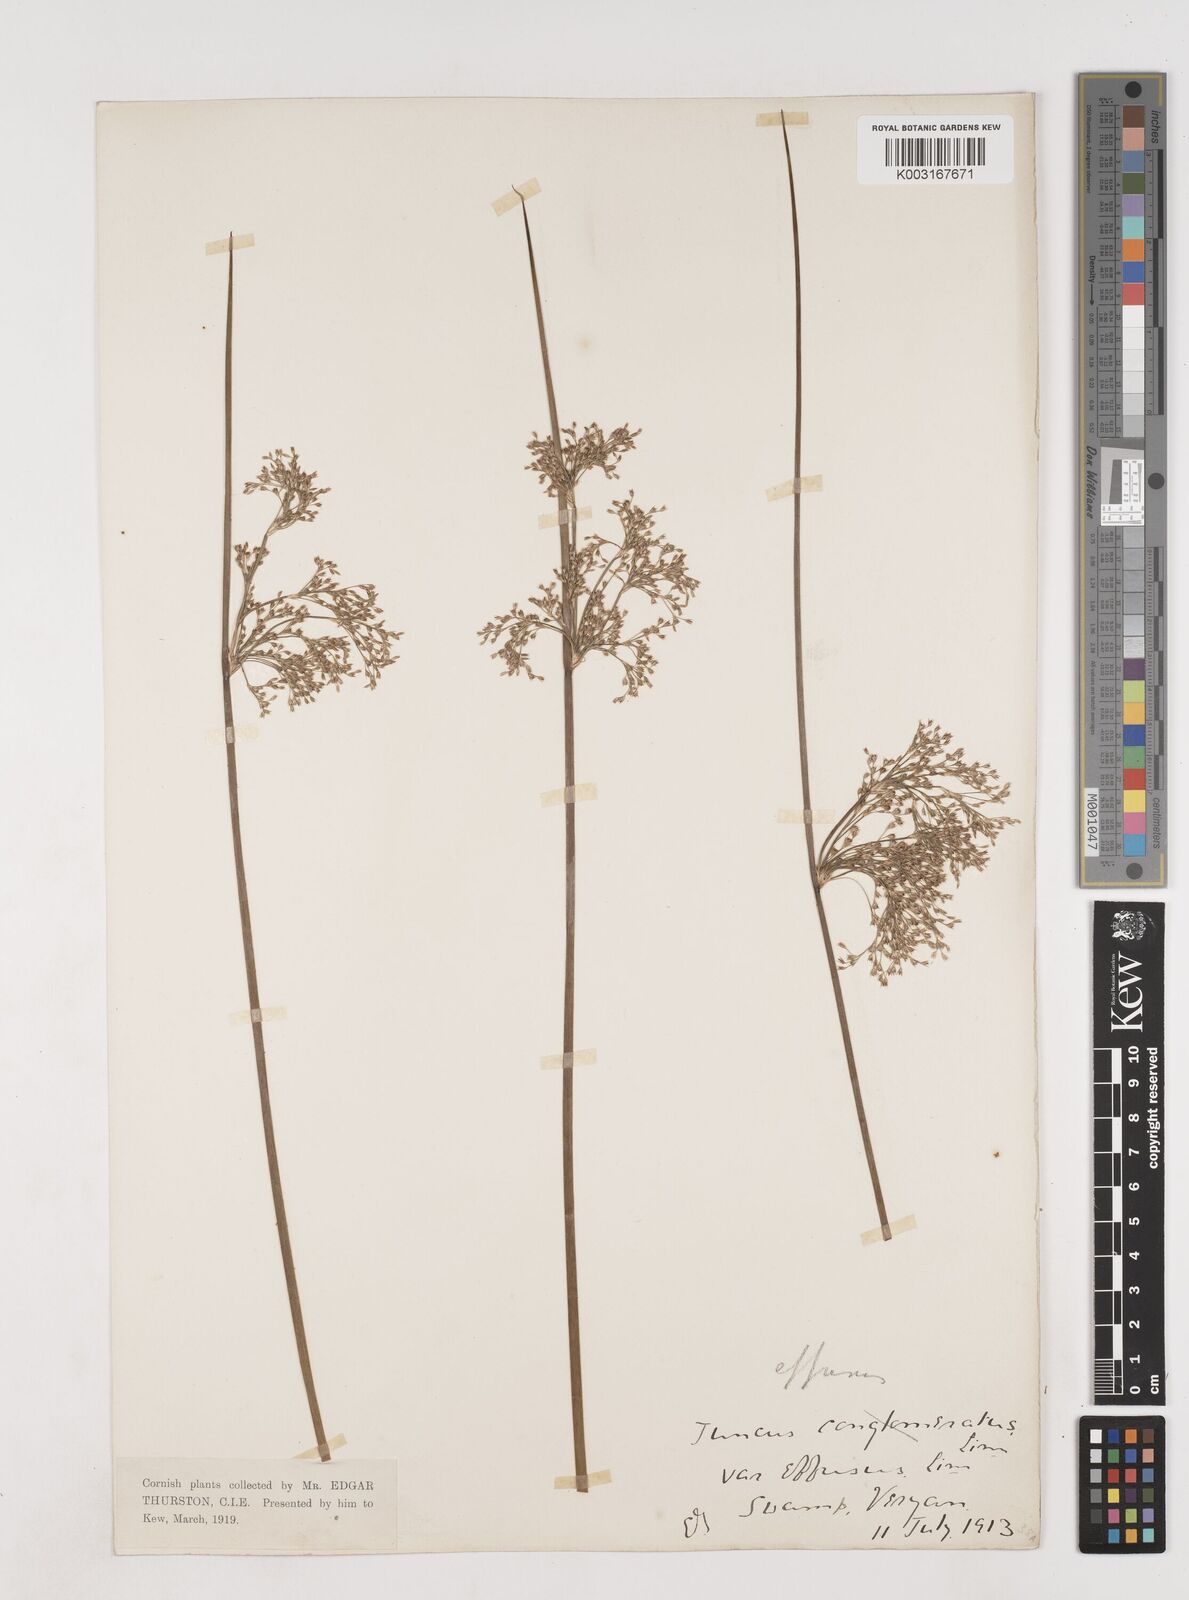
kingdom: Plantae
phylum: Tracheophyta
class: Liliopsida
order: Poales
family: Juncaceae
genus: Juncus
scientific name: Juncus effusus
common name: Soft rush
